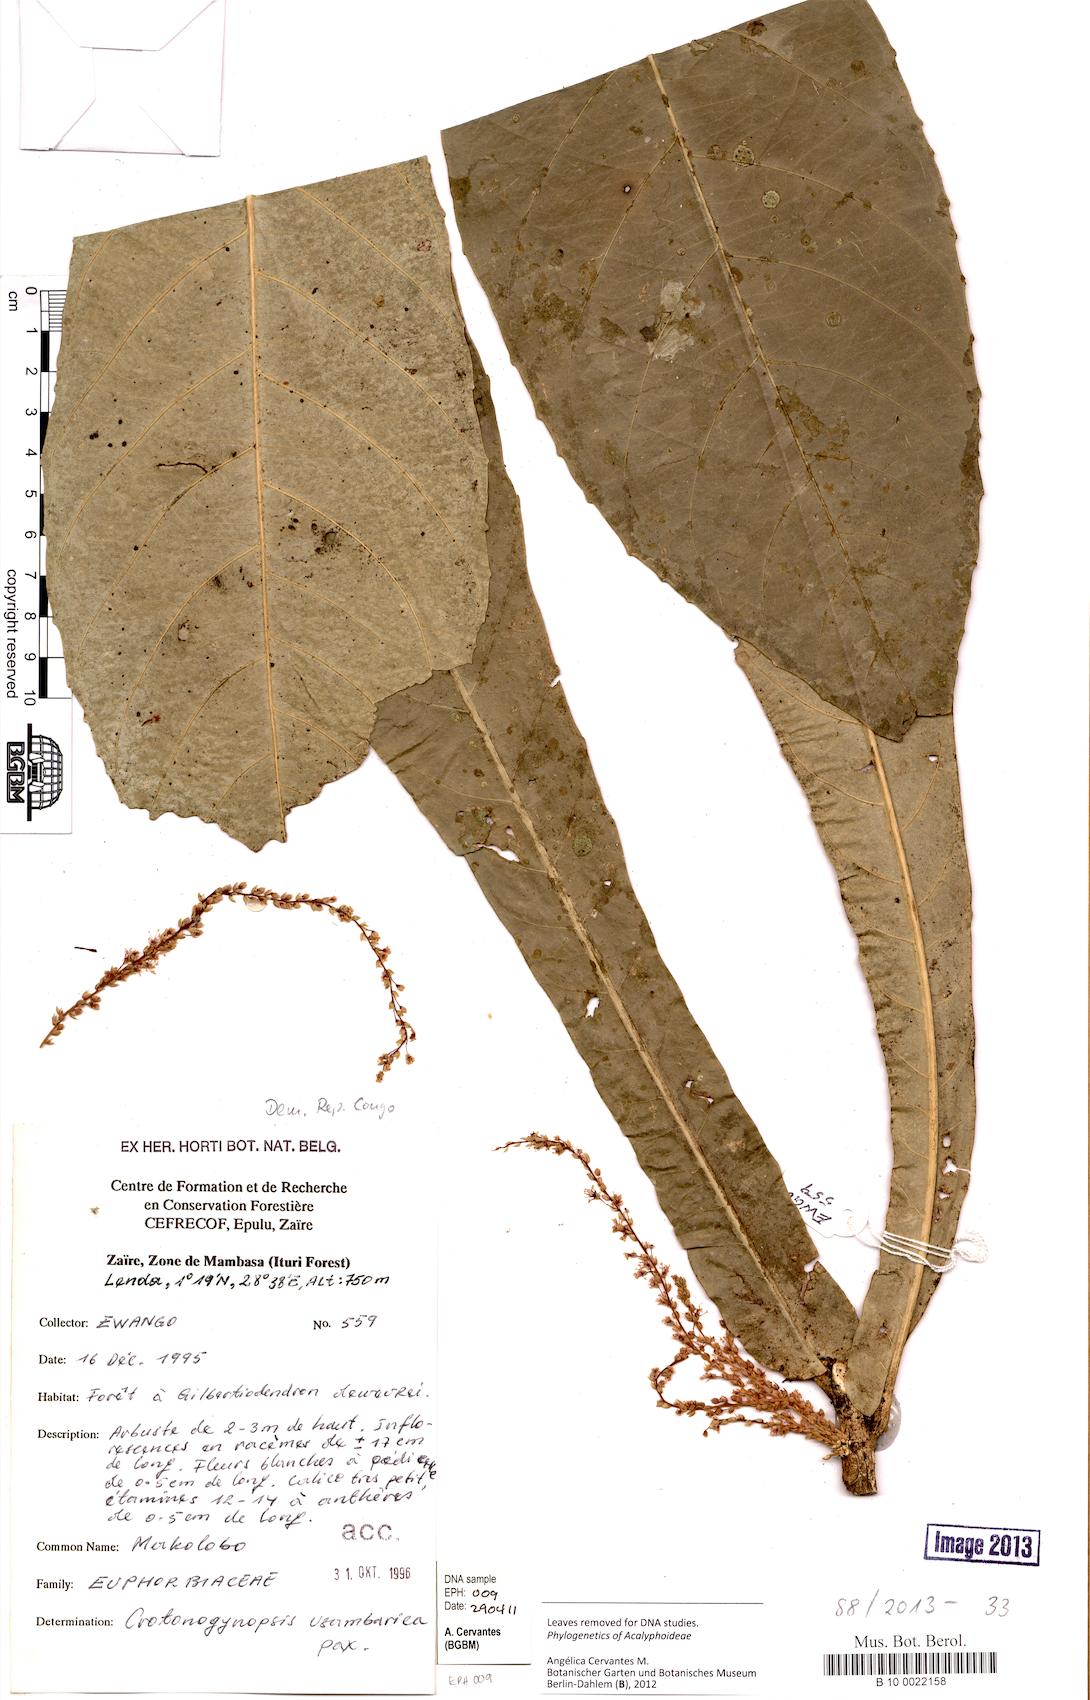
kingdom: Plantae
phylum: Tracheophyta
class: Magnoliopsida
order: Malpighiales
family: Euphorbiaceae
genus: Crotonogynopsis
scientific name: Crotonogynopsis usambarica
